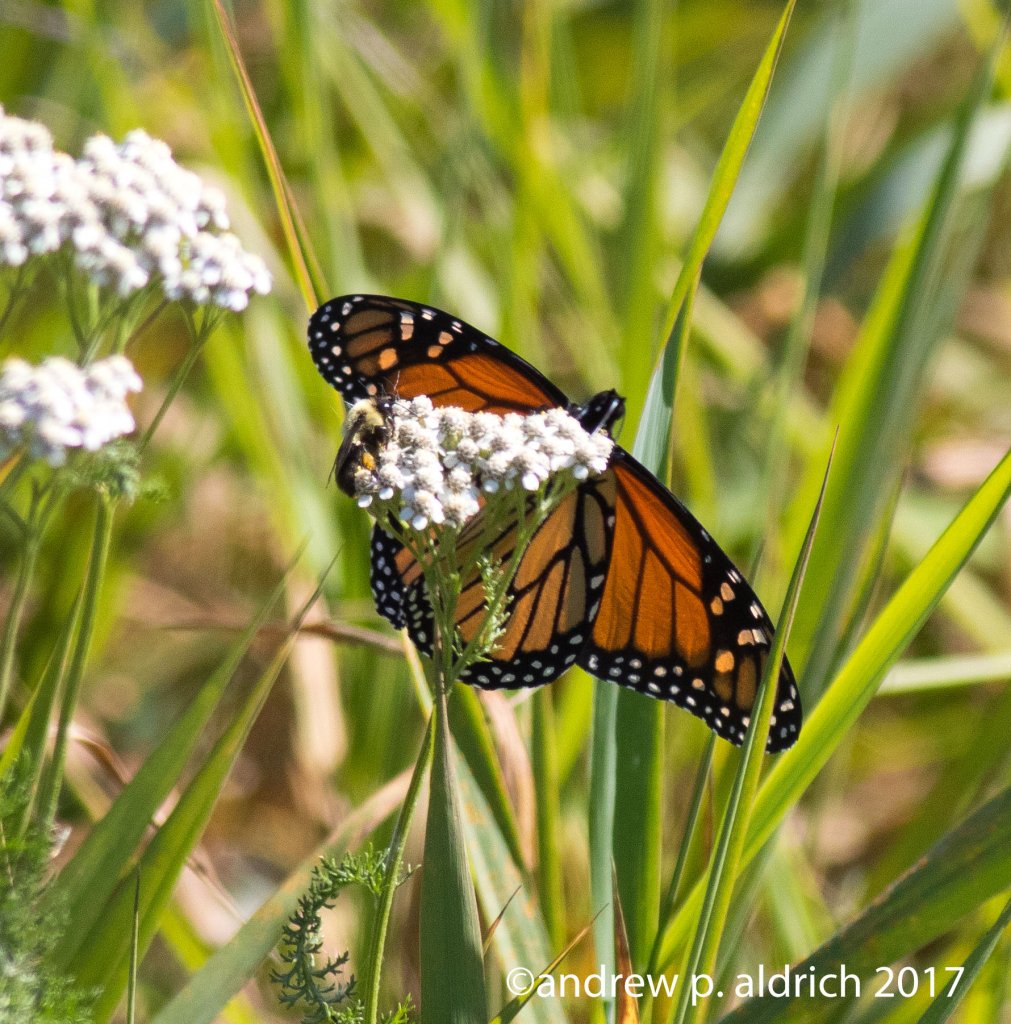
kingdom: Animalia
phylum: Arthropoda
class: Insecta
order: Lepidoptera
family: Nymphalidae
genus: Danaus
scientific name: Danaus plexippus
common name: Monarch
